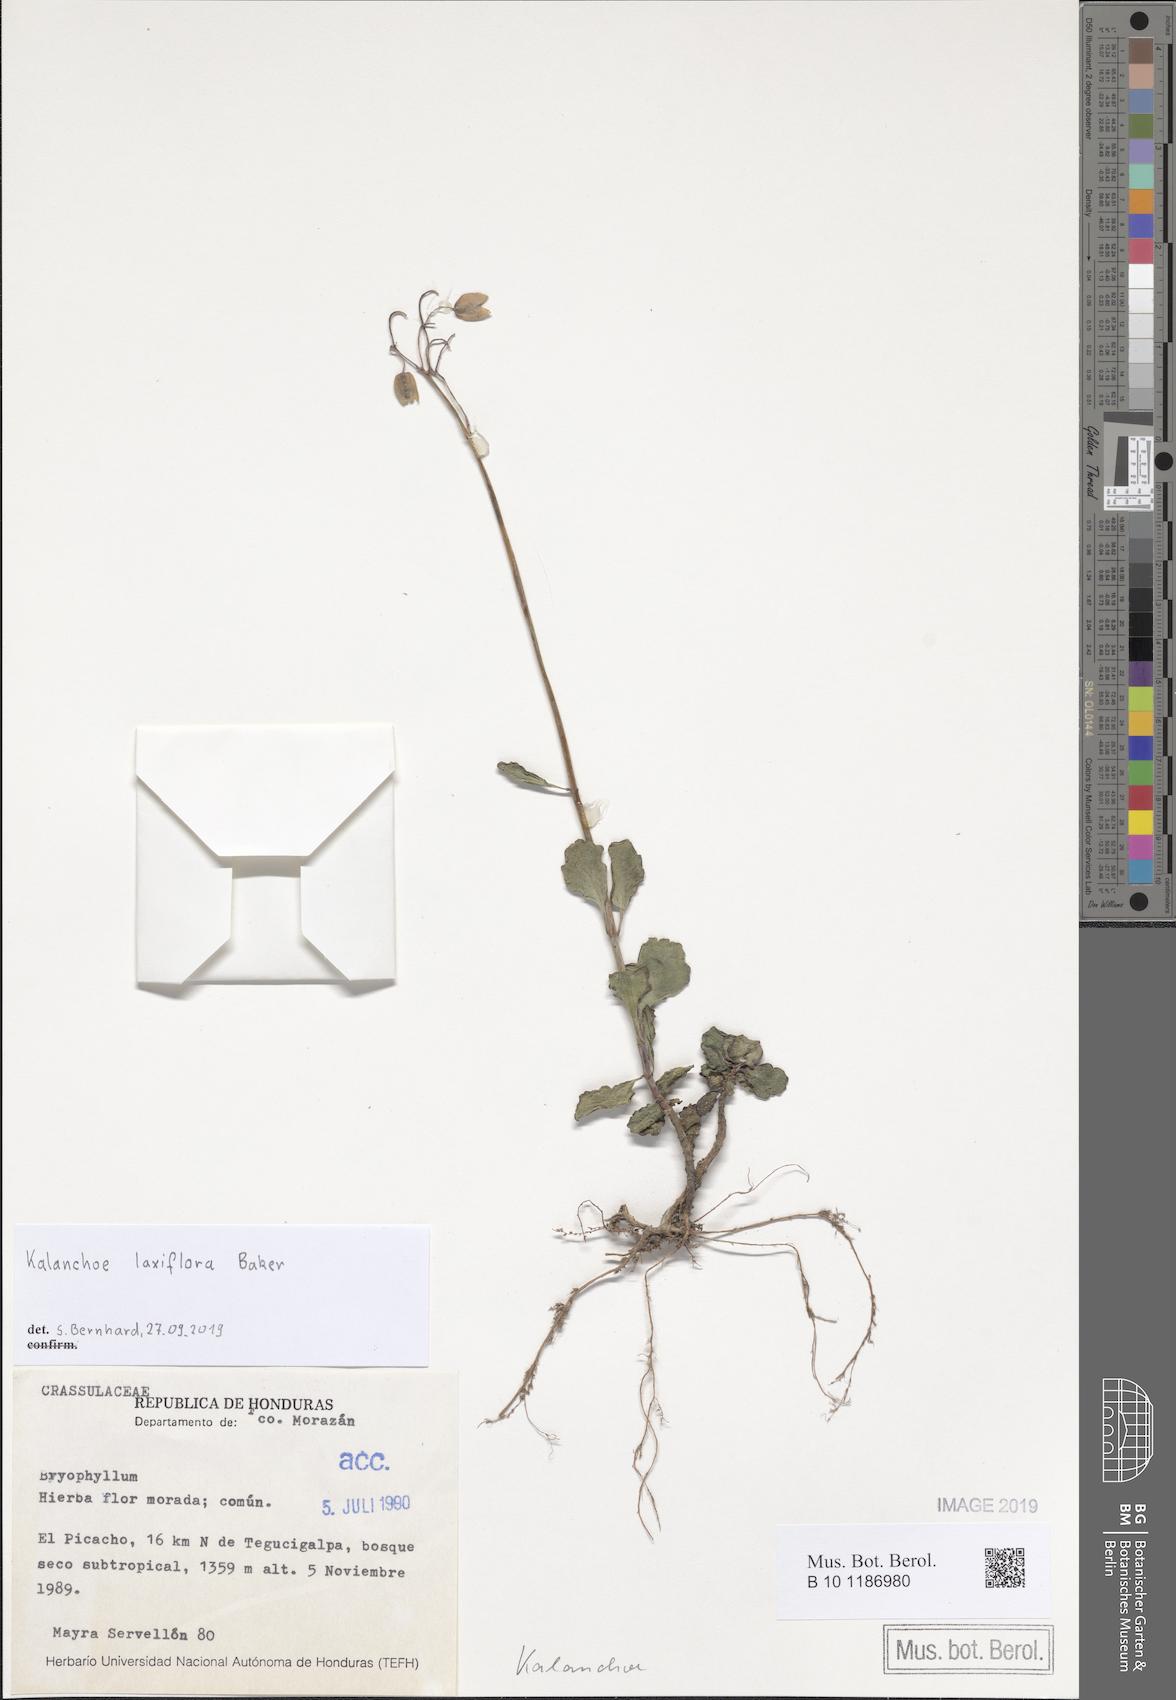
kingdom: Plantae
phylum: Tracheophyta
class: Magnoliopsida
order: Saxifragales
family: Crassulaceae
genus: Kalanchoe
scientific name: Kalanchoe laxiflora
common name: Milky widow's thrill
